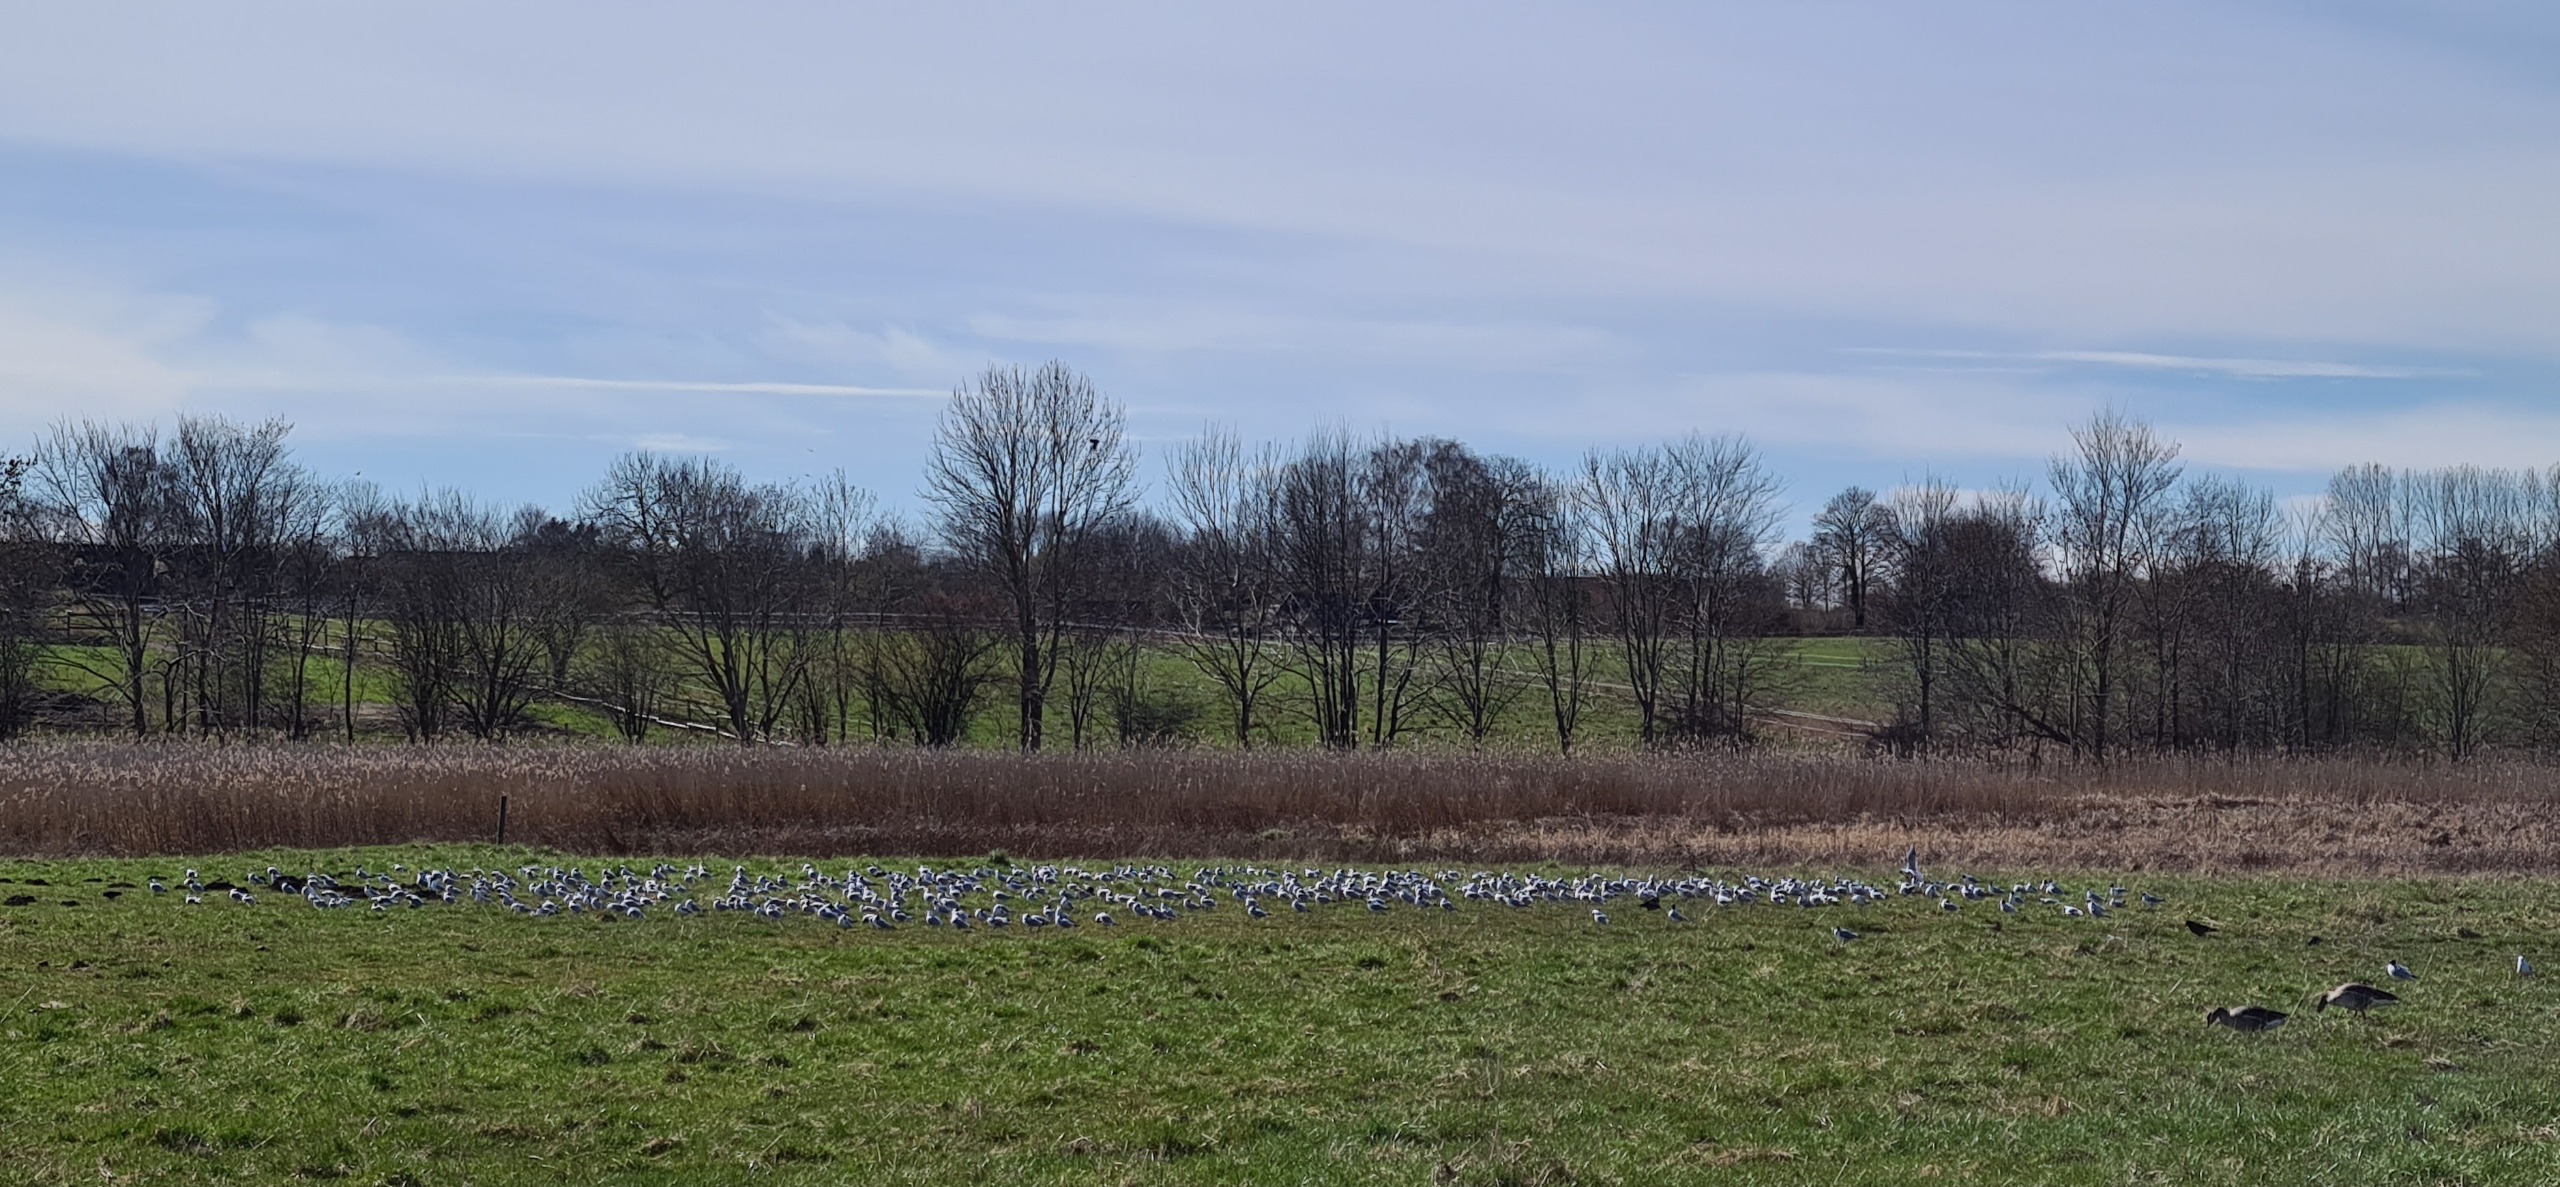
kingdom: Animalia
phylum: Chordata
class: Aves
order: Charadriiformes
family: Laridae
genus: Chroicocephalus
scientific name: Chroicocephalus ridibundus
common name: Hættemåge
